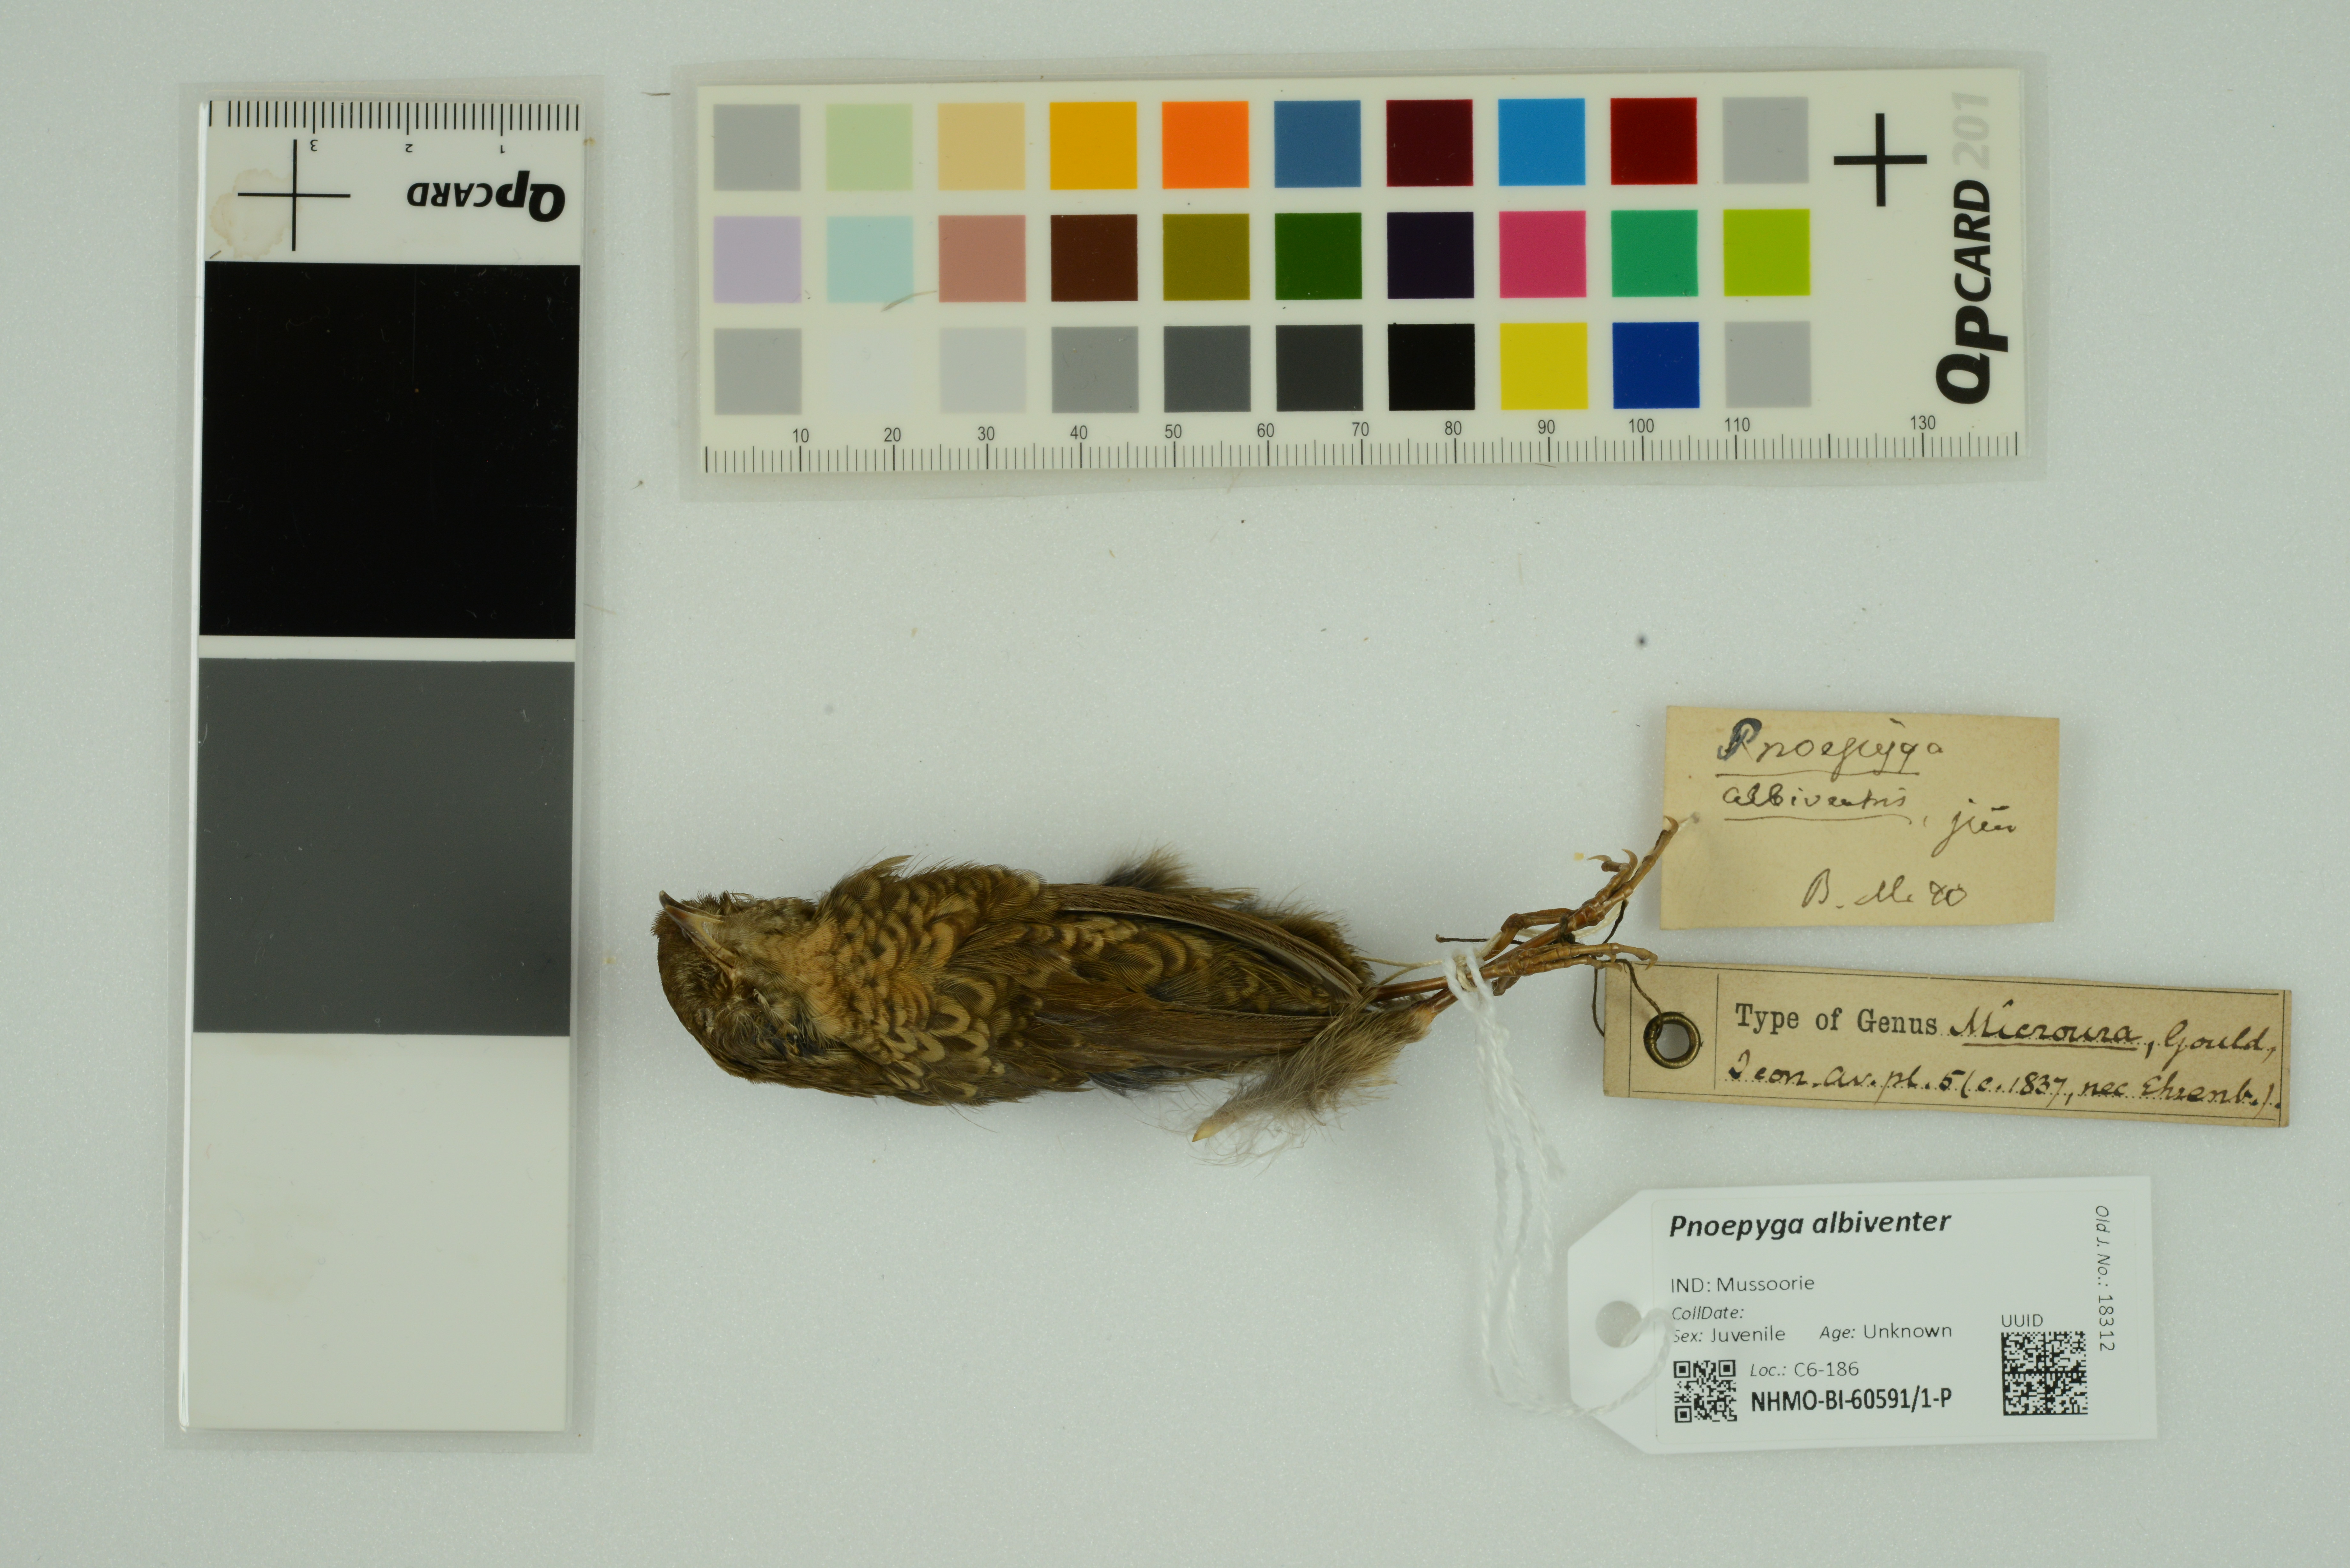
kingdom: Animalia
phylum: Chordata
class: Aves
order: Passeriformes
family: Pnoepygidae
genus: Pnoepyga
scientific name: Pnoepyga albiventer
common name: Scaly-breasted wren-babbler
